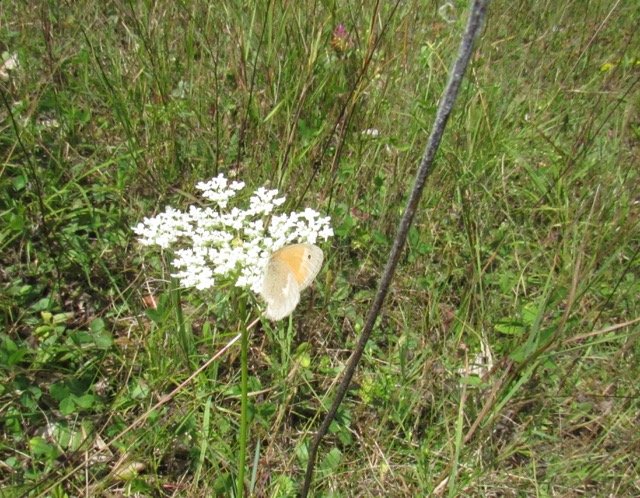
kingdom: Animalia
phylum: Arthropoda
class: Insecta
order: Lepidoptera
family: Nymphalidae
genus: Coenonympha
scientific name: Coenonympha tullia
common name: Large Heath
